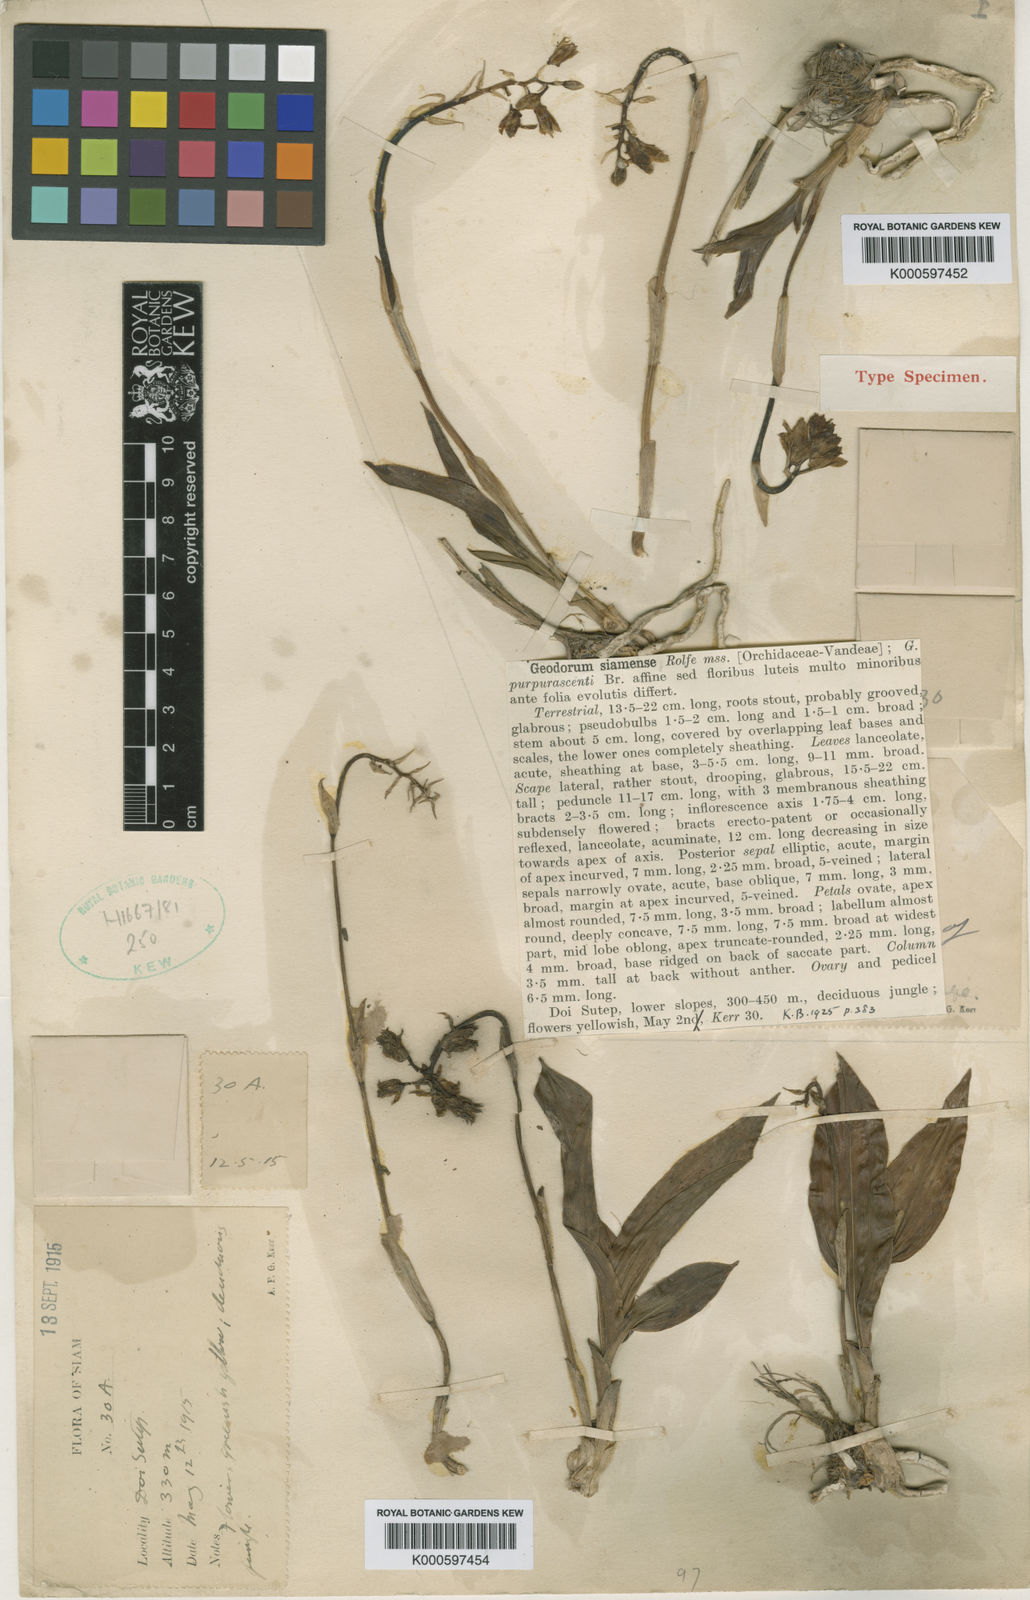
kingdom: Plantae
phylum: Tracheophyta
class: Liliopsida
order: Asparagales
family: Orchidaceae
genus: Eulophia
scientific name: Eulophia exigua
